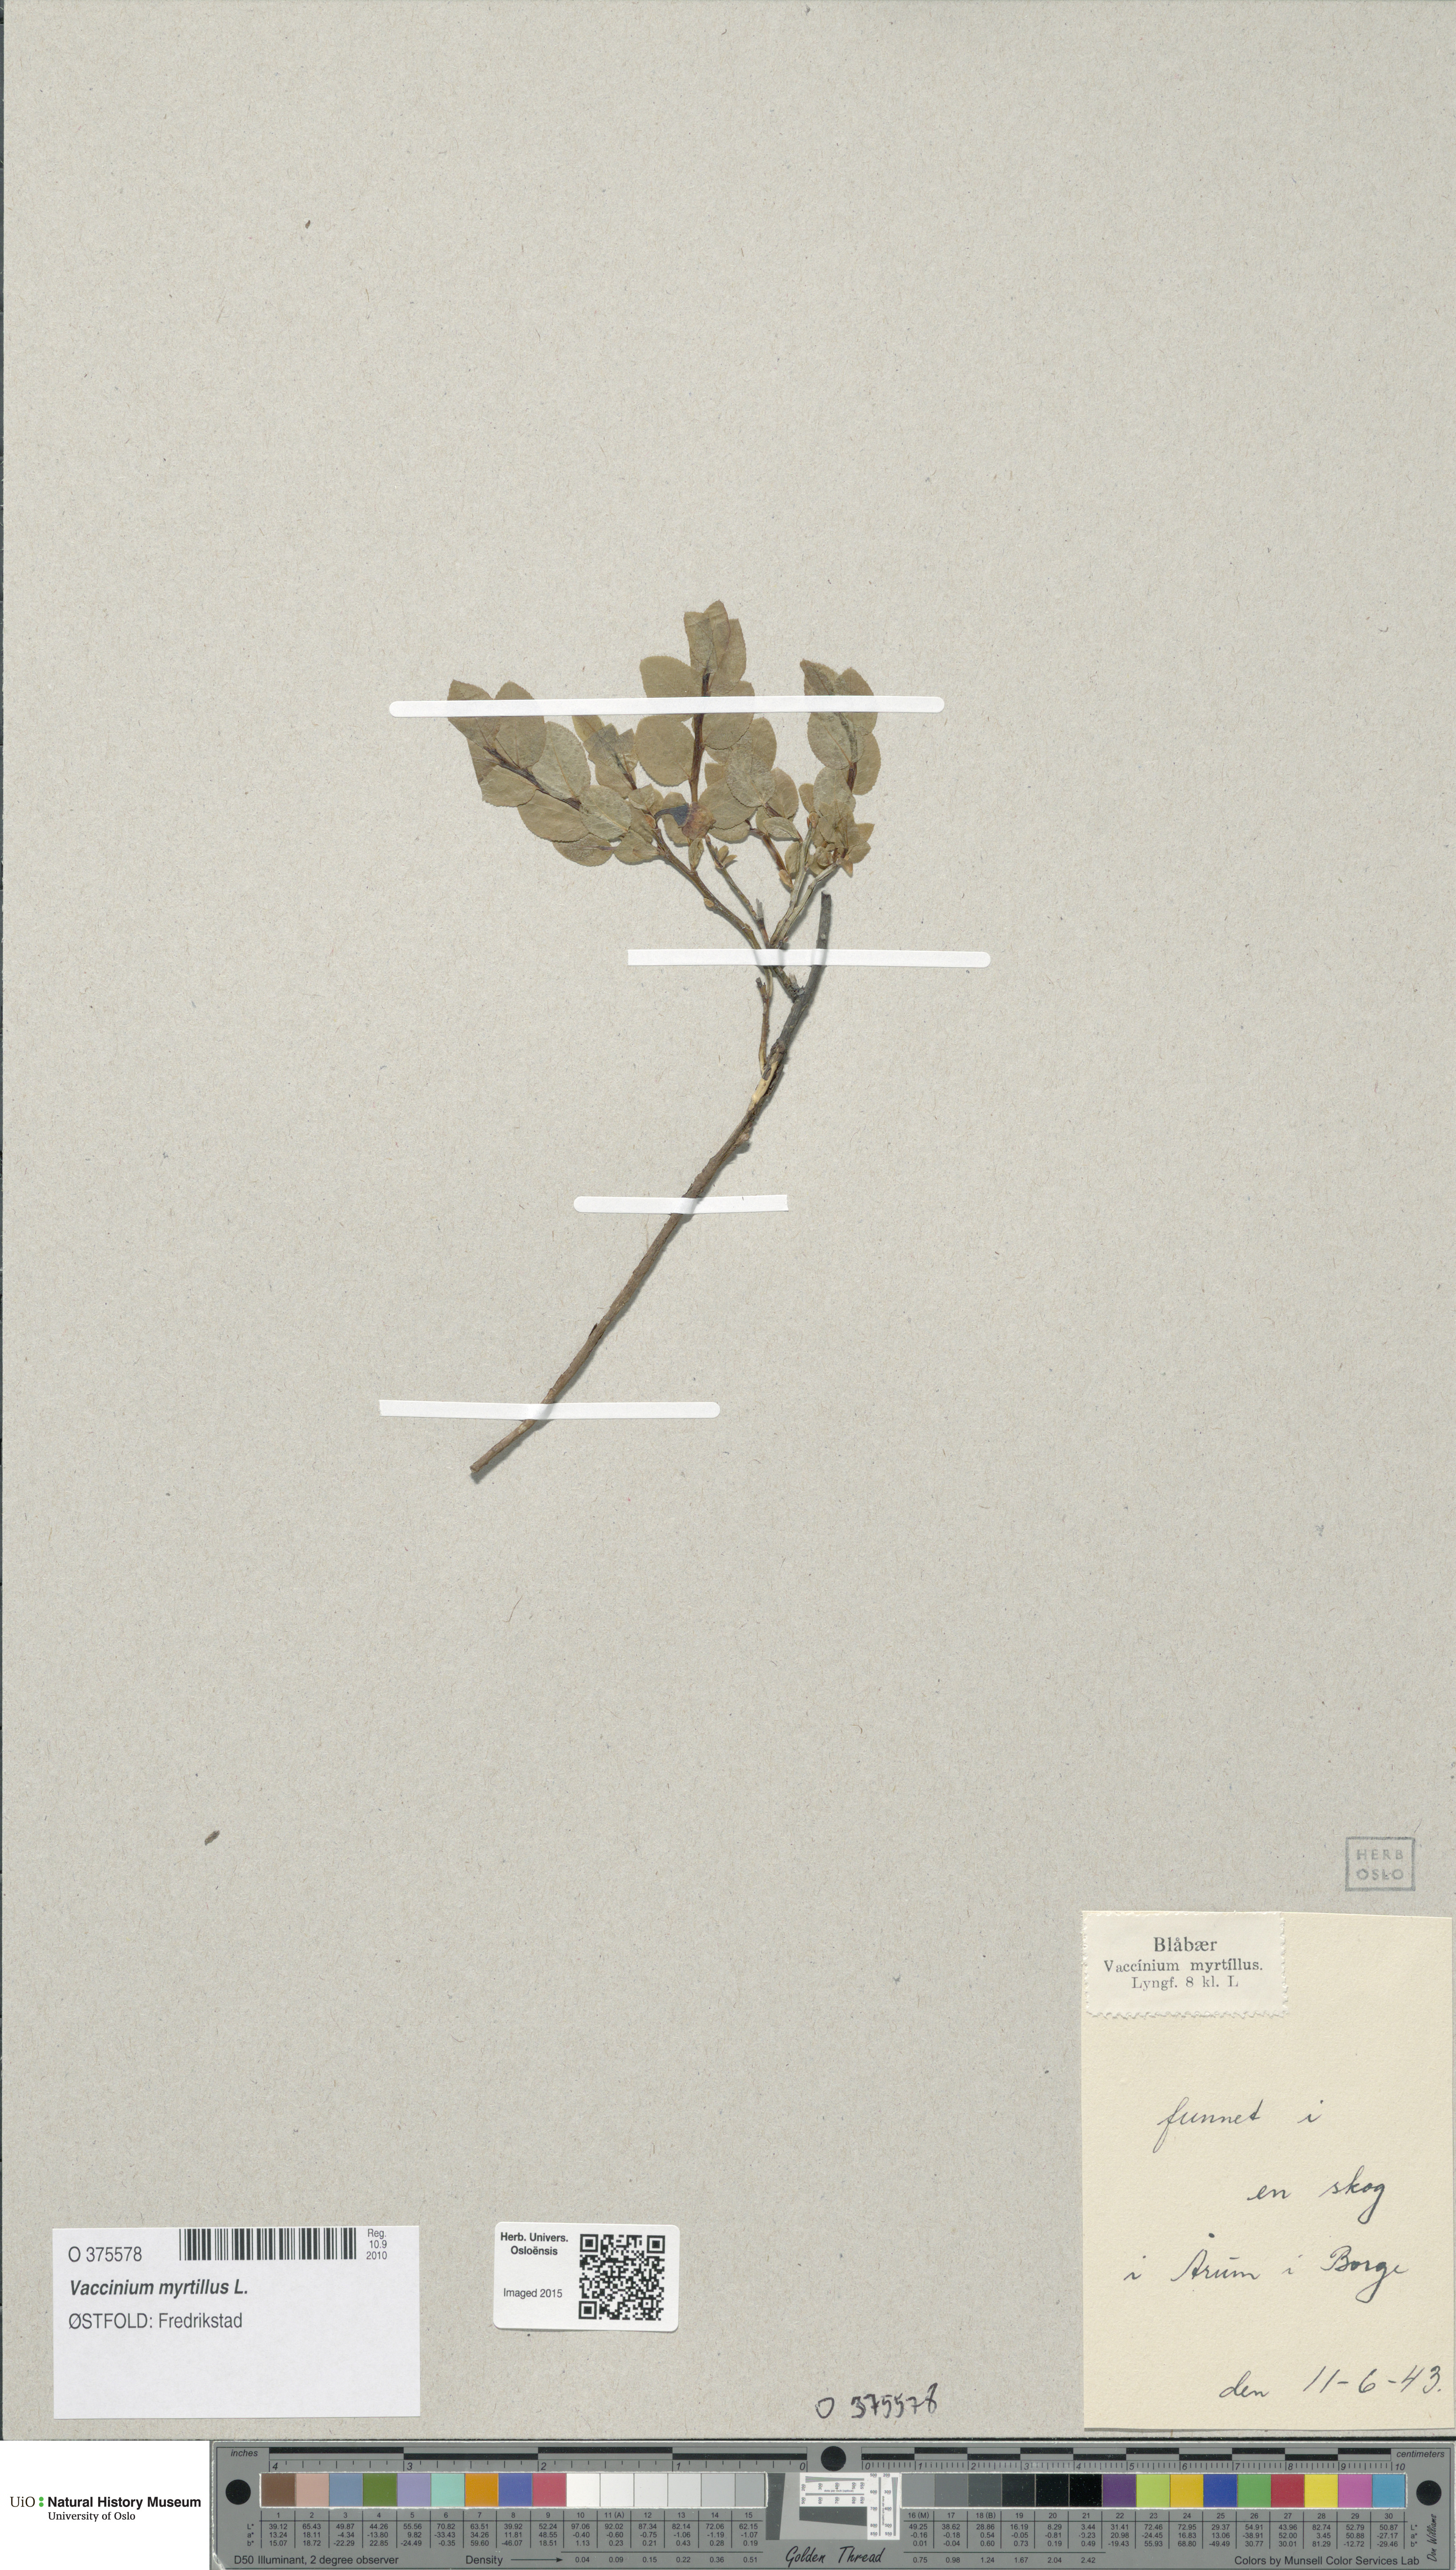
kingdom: Plantae
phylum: Tracheophyta
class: Magnoliopsida
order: Ericales
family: Ericaceae
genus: Vaccinium
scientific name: Vaccinium myrtillus
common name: Bilberry
